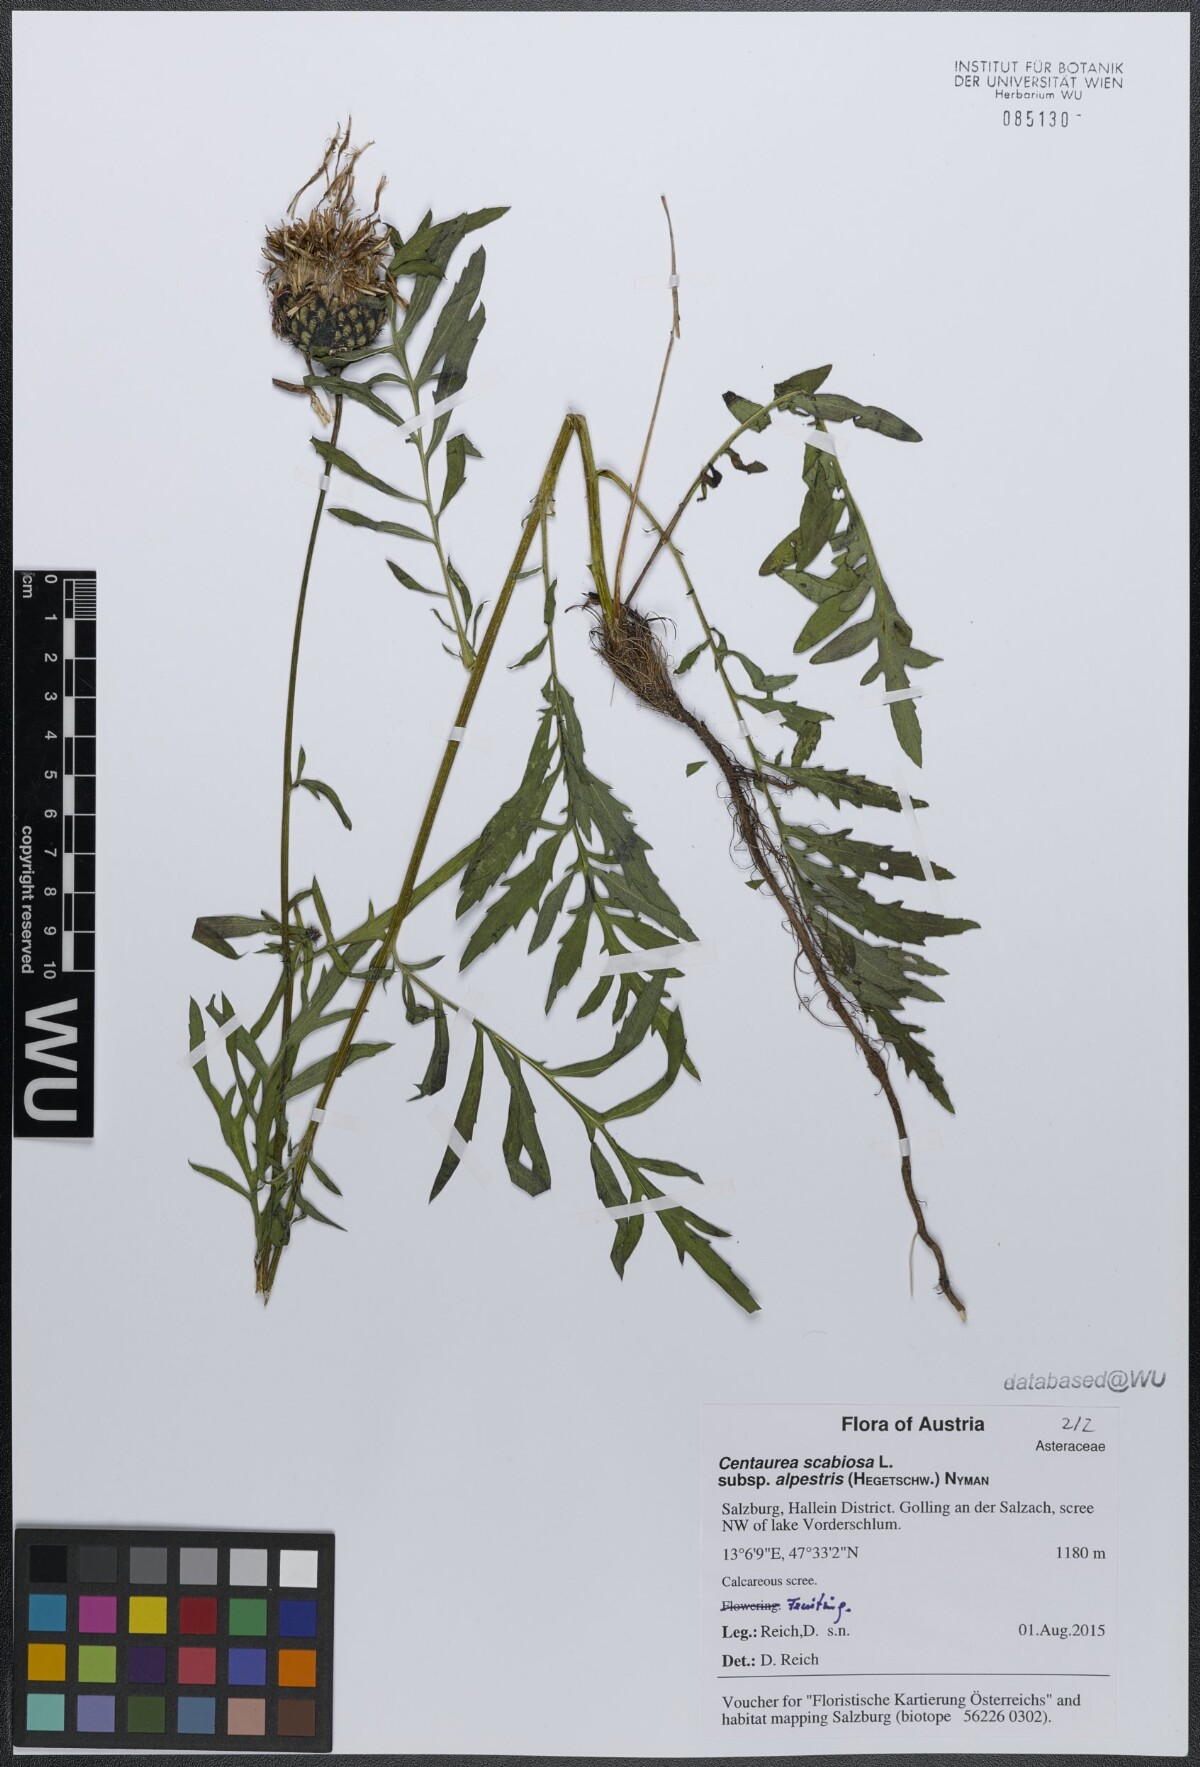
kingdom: Plantae
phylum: Tracheophyta
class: Magnoliopsida
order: Asterales
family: Asteraceae
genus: Centaurea
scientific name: Centaurea scabiosa
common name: Greater knapweed
